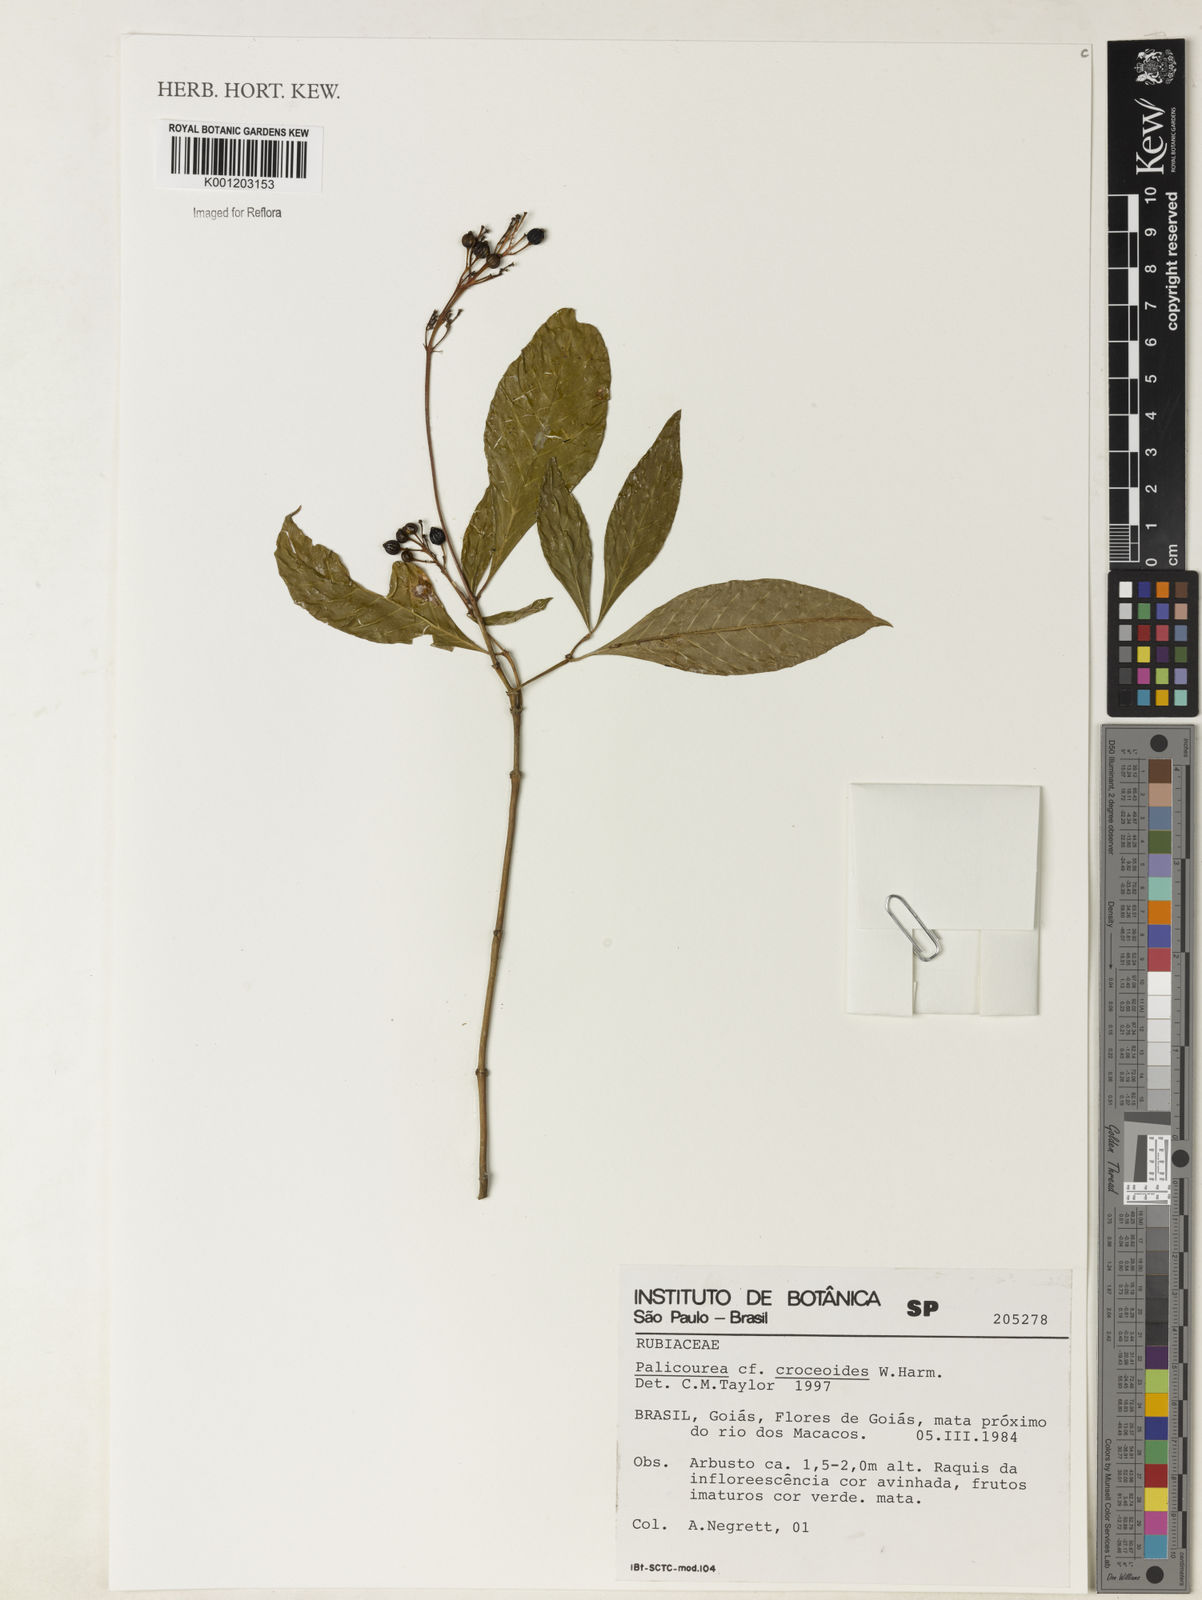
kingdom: Plantae
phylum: Tracheophyta
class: Magnoliopsida
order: Gentianales
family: Rubiaceae
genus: Palicourea
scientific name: Palicourea croceoides
